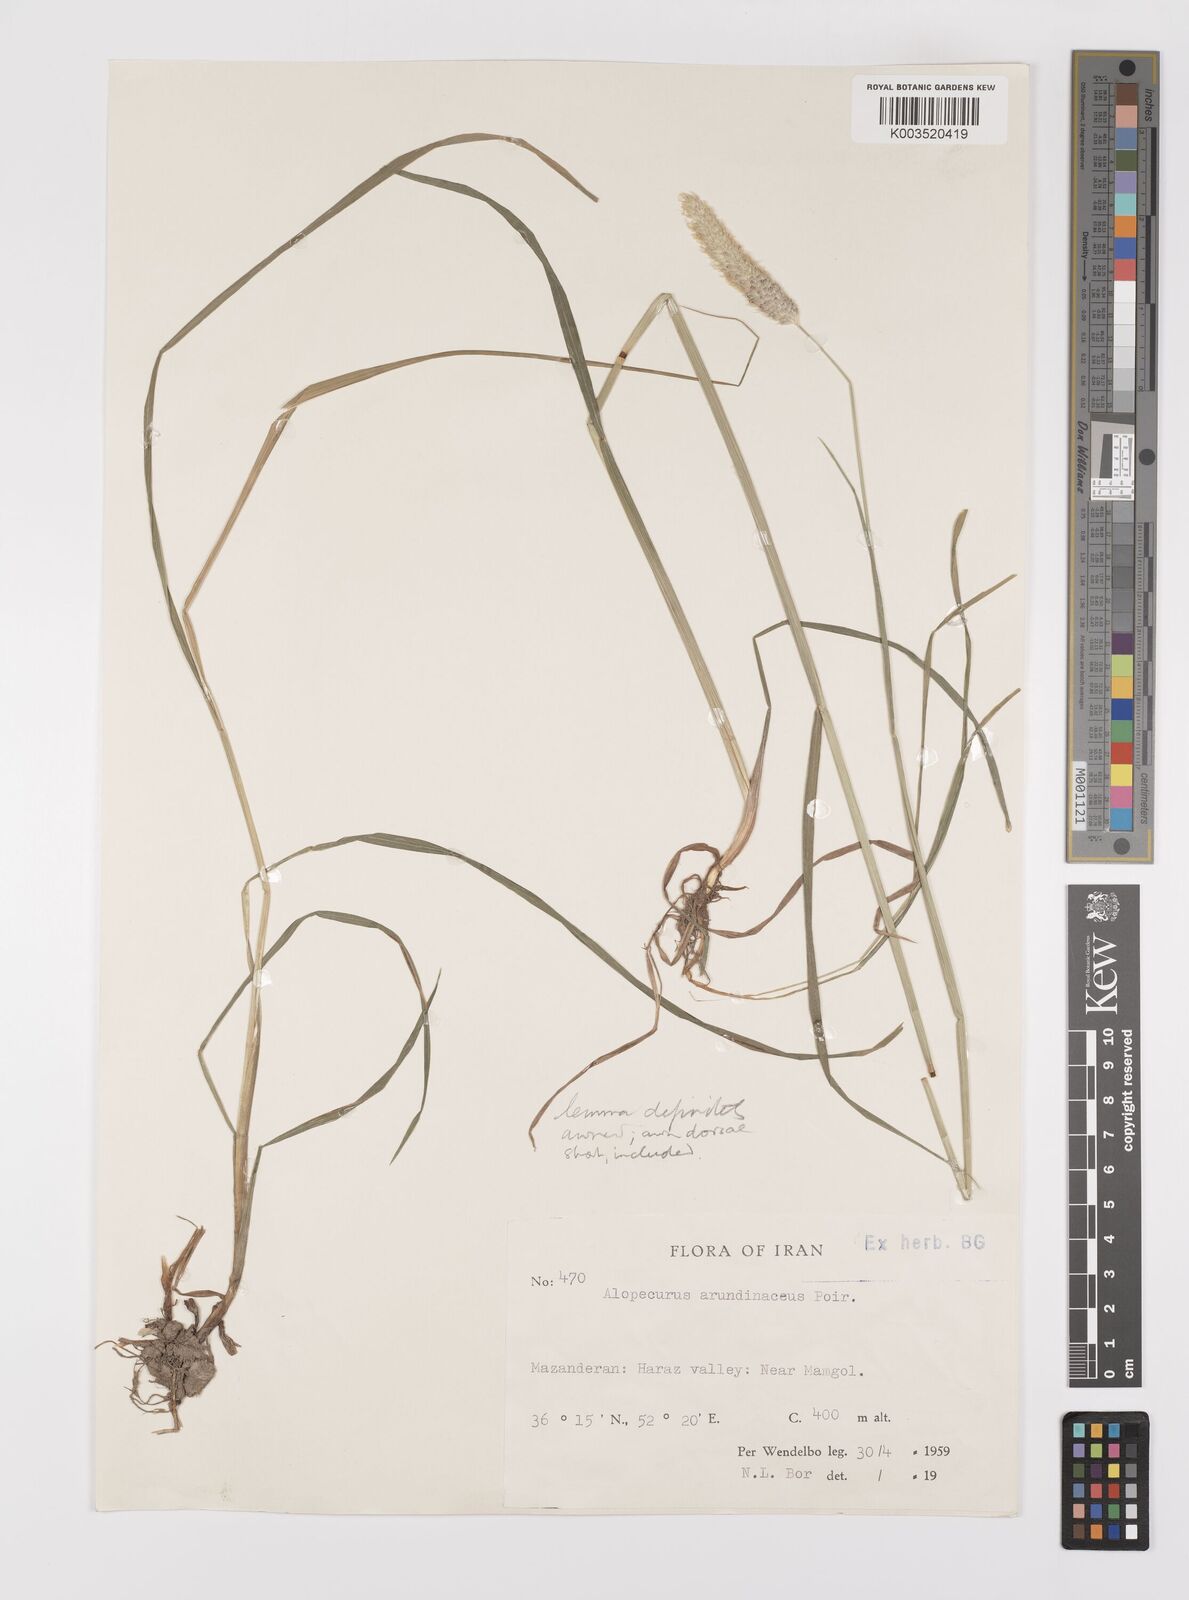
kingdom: Plantae
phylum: Tracheophyta
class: Liliopsida
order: Poales
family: Poaceae
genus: Alopecurus
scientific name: Alopecurus arundinaceus
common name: Creeping meadow foxtail
